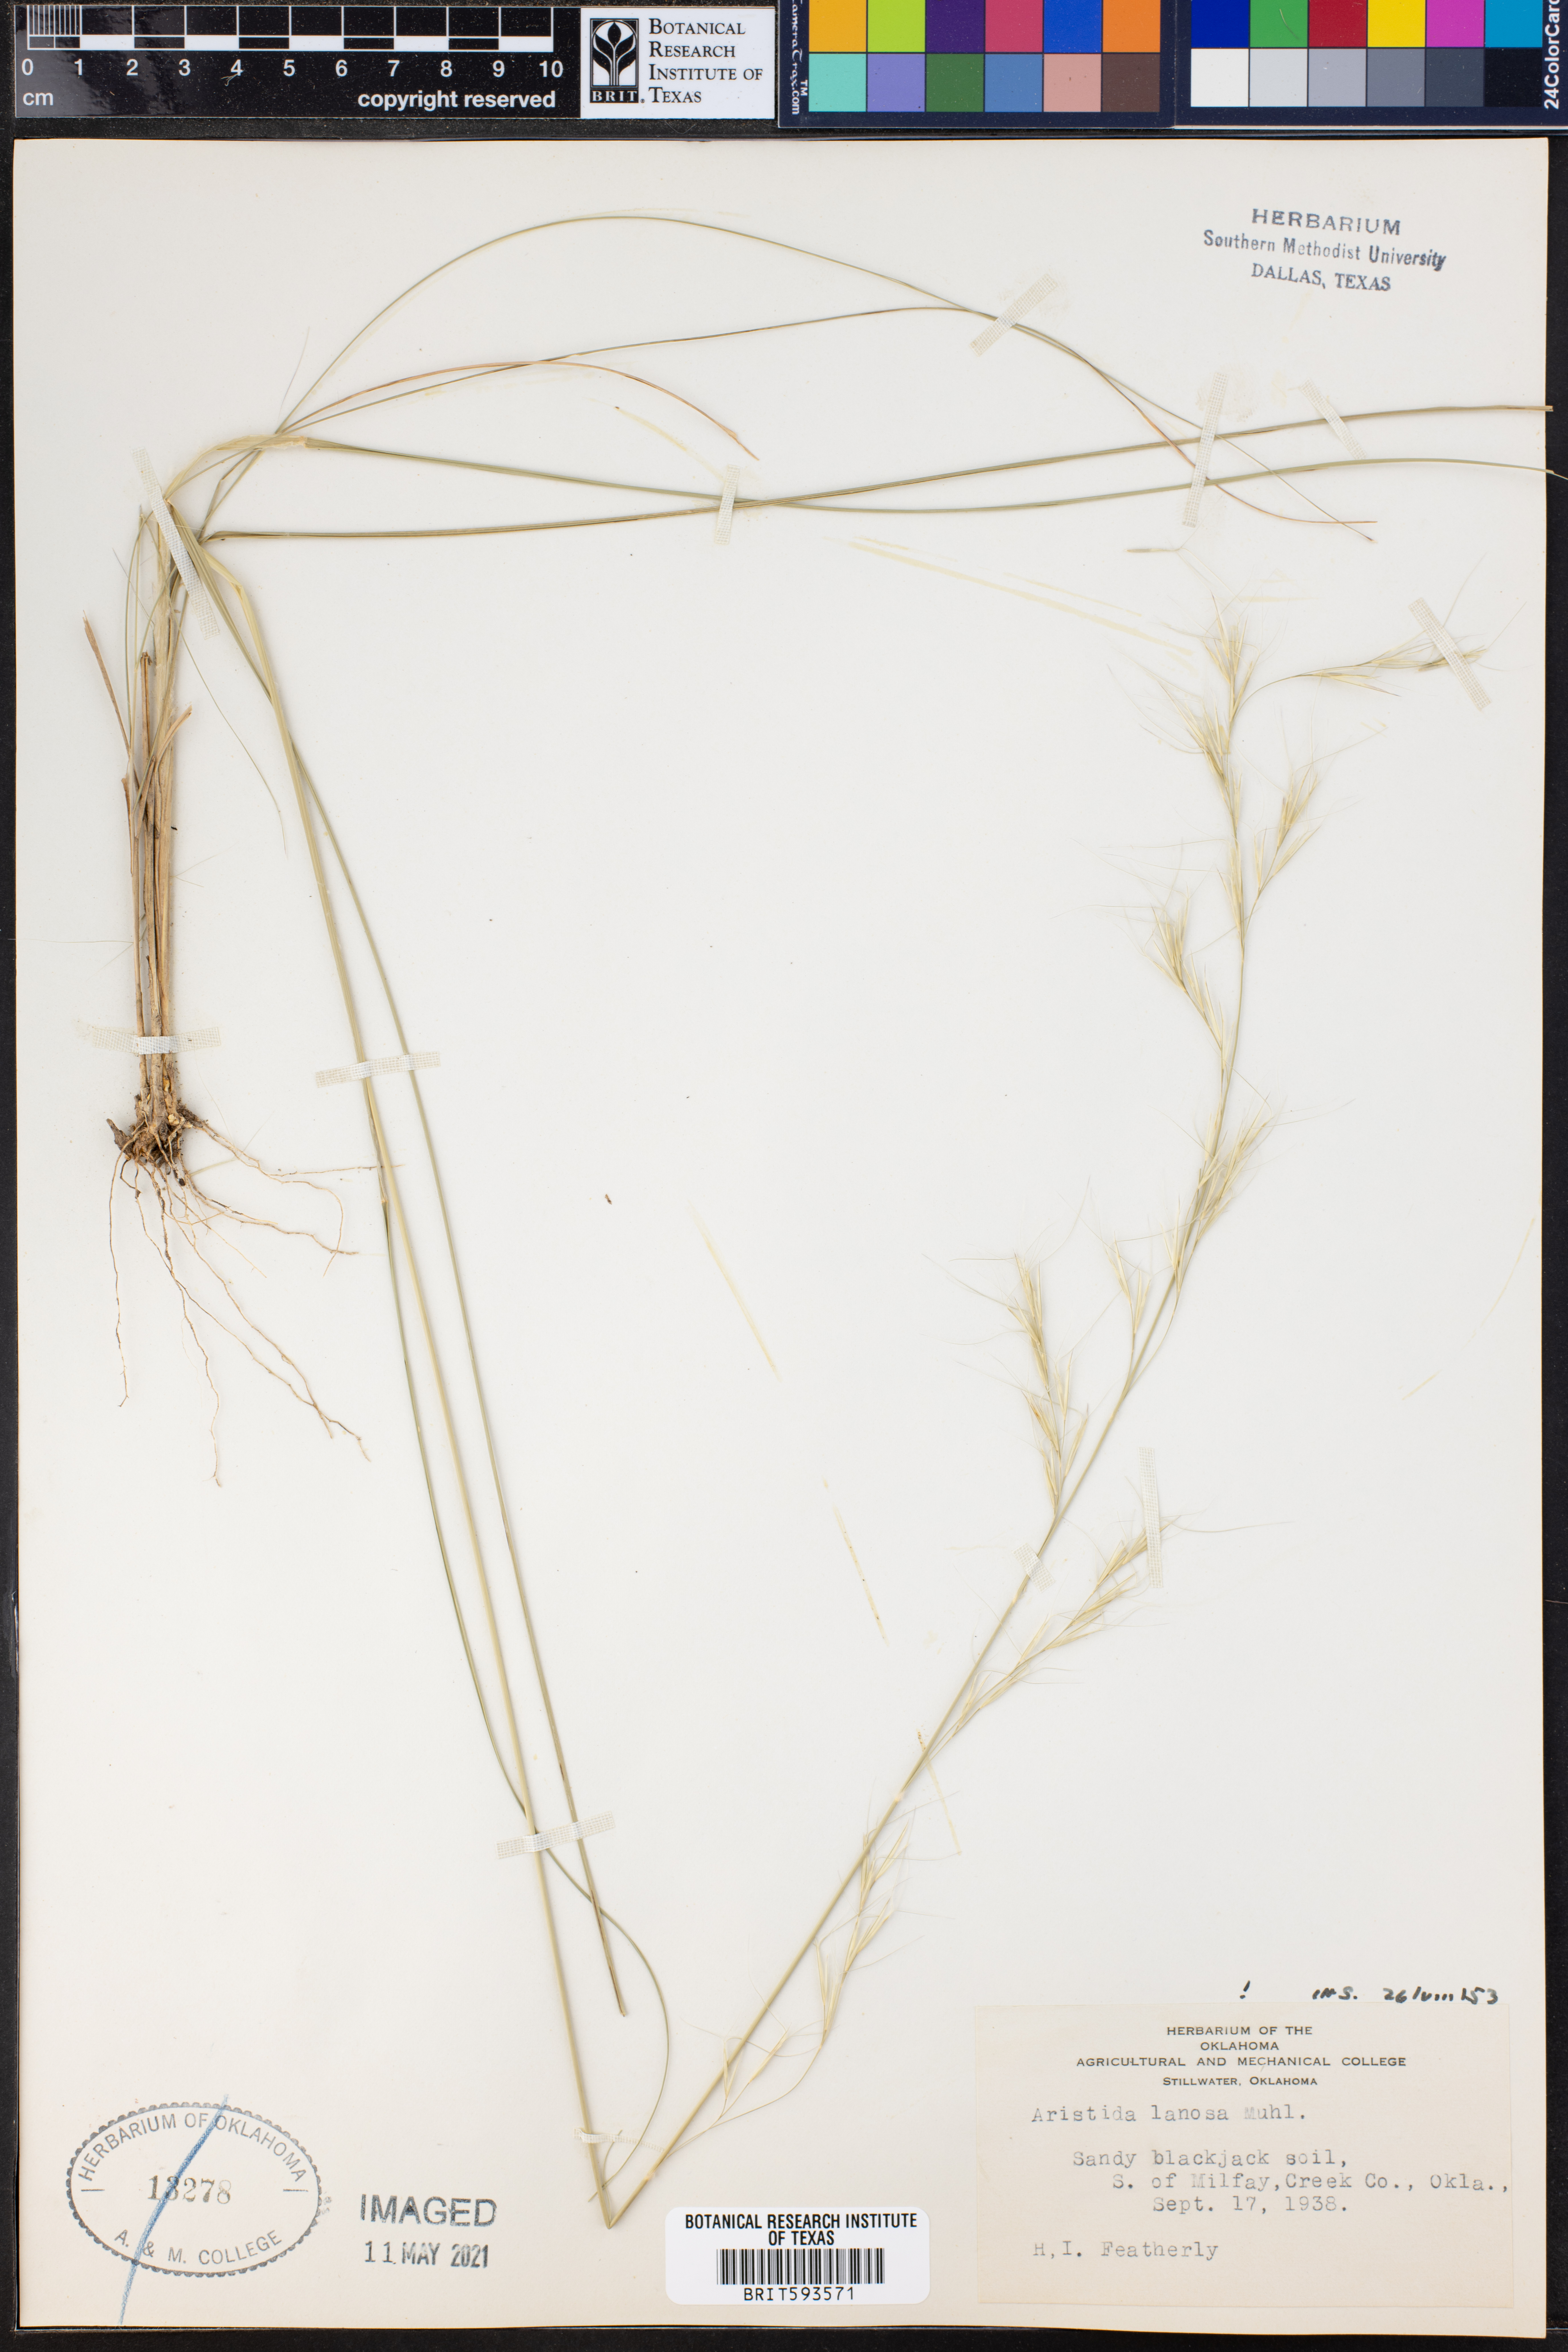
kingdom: Plantae
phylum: Tracheophyta
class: Liliopsida
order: Poales
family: Poaceae
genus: Aristida
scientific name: Aristida lanosa
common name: Woolly three-awn
